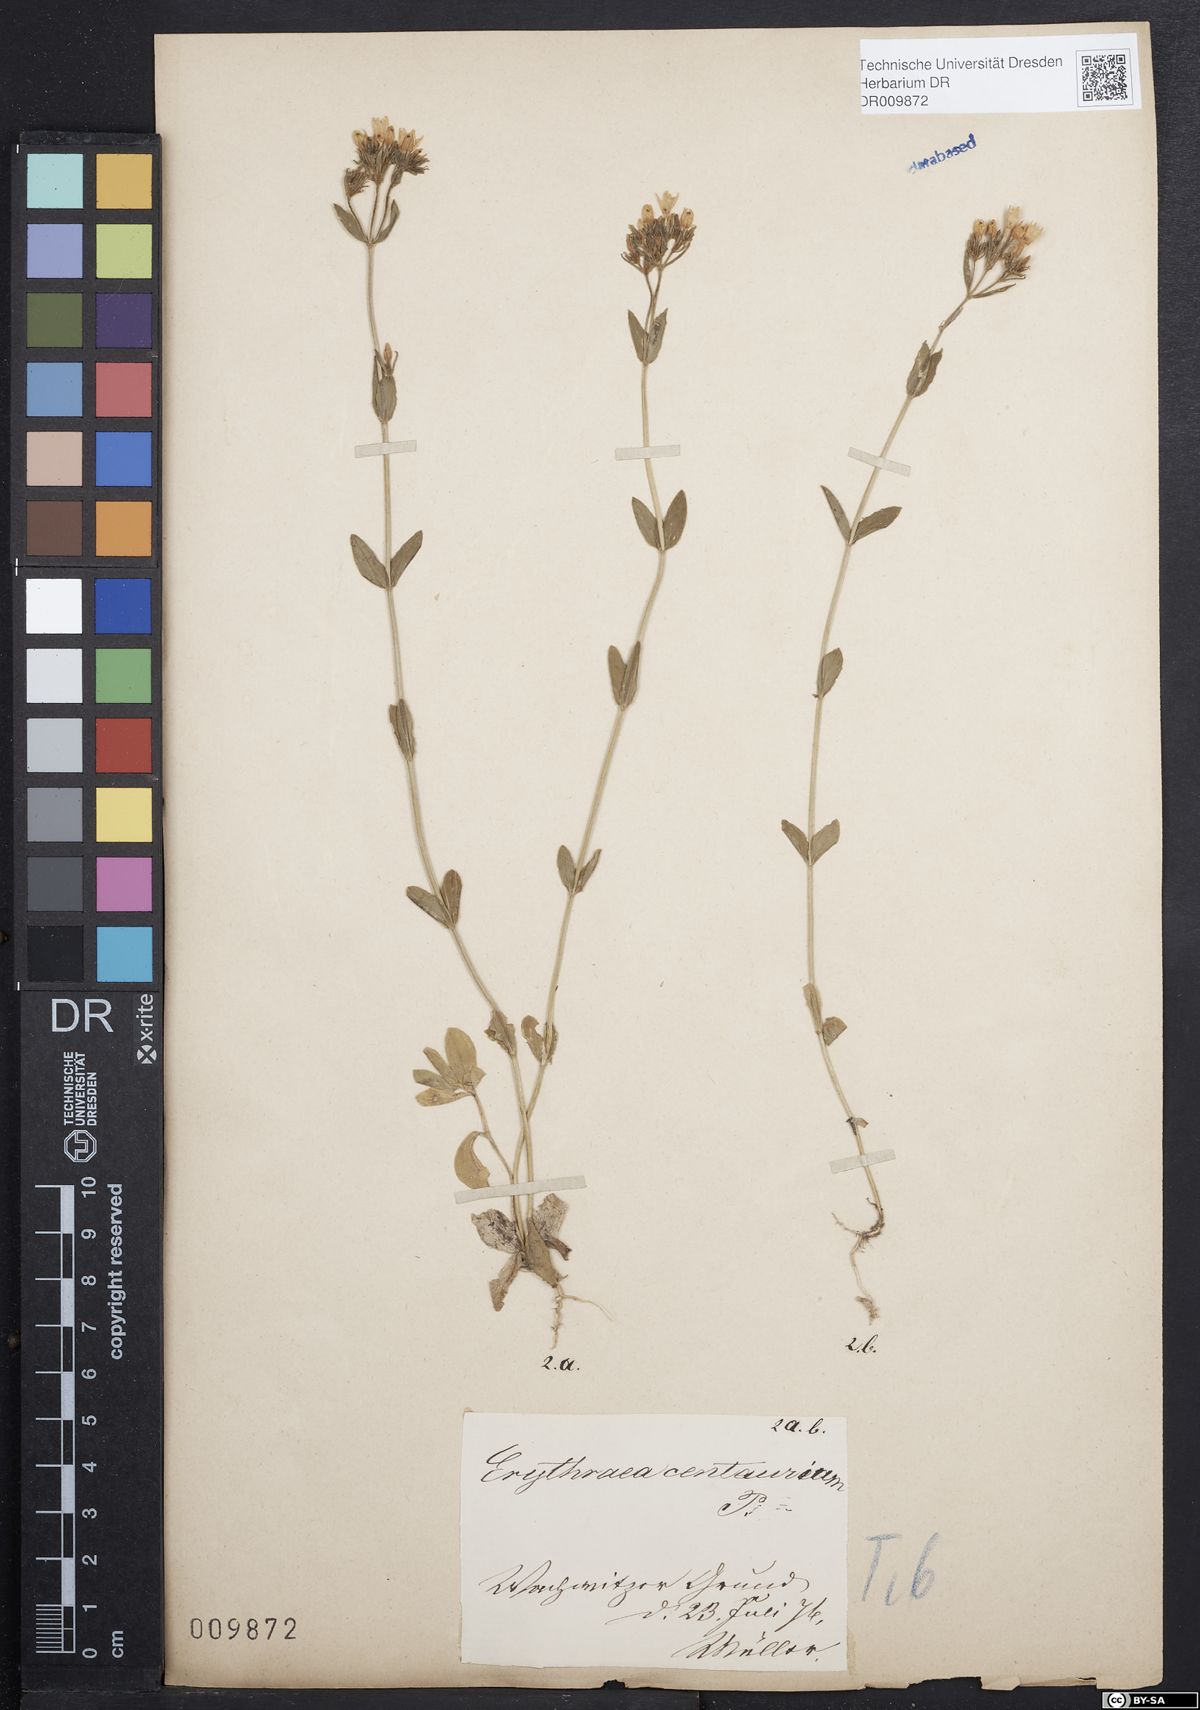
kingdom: Plantae
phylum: Tracheophyta
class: Magnoliopsida
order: Gentianales
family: Gentianaceae
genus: Centaurium
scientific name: Centaurium erythraea
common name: Common centaury
